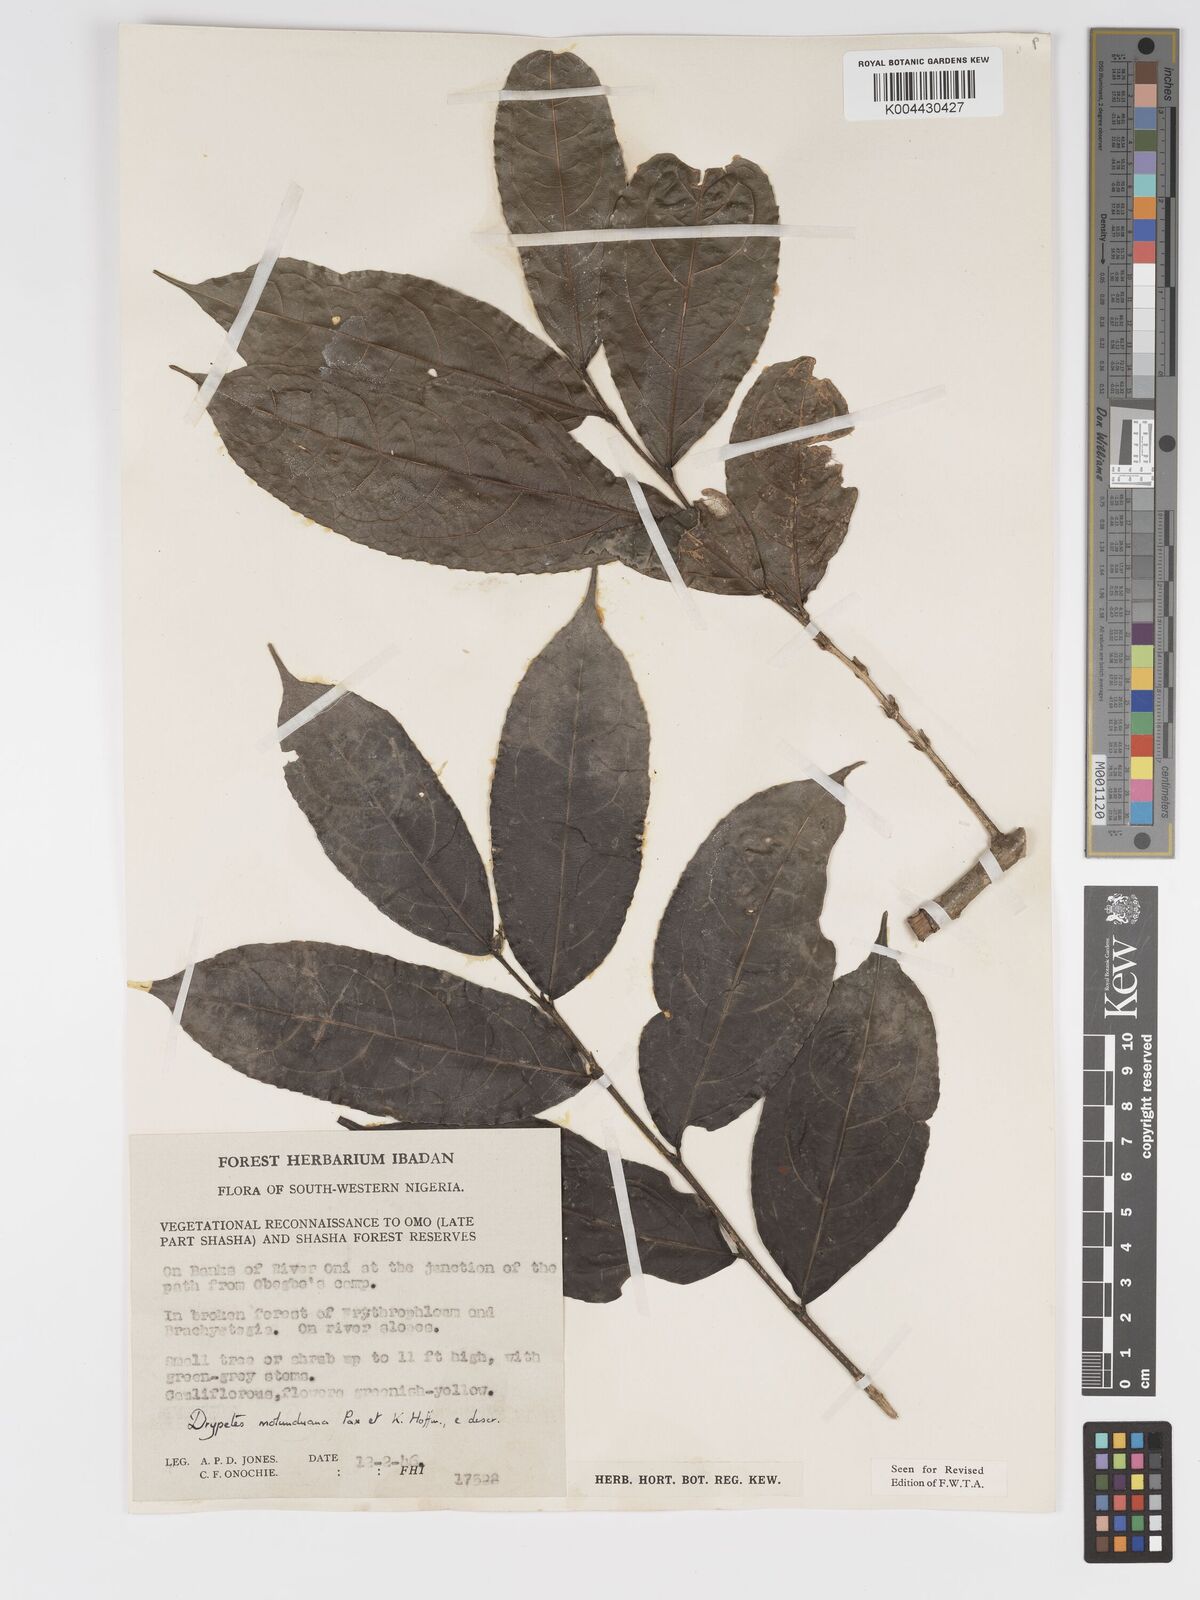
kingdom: Plantae
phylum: Tracheophyta
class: Magnoliopsida
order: Malpighiales
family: Putranjivaceae
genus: Drypetes
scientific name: Drypetes molunduana
